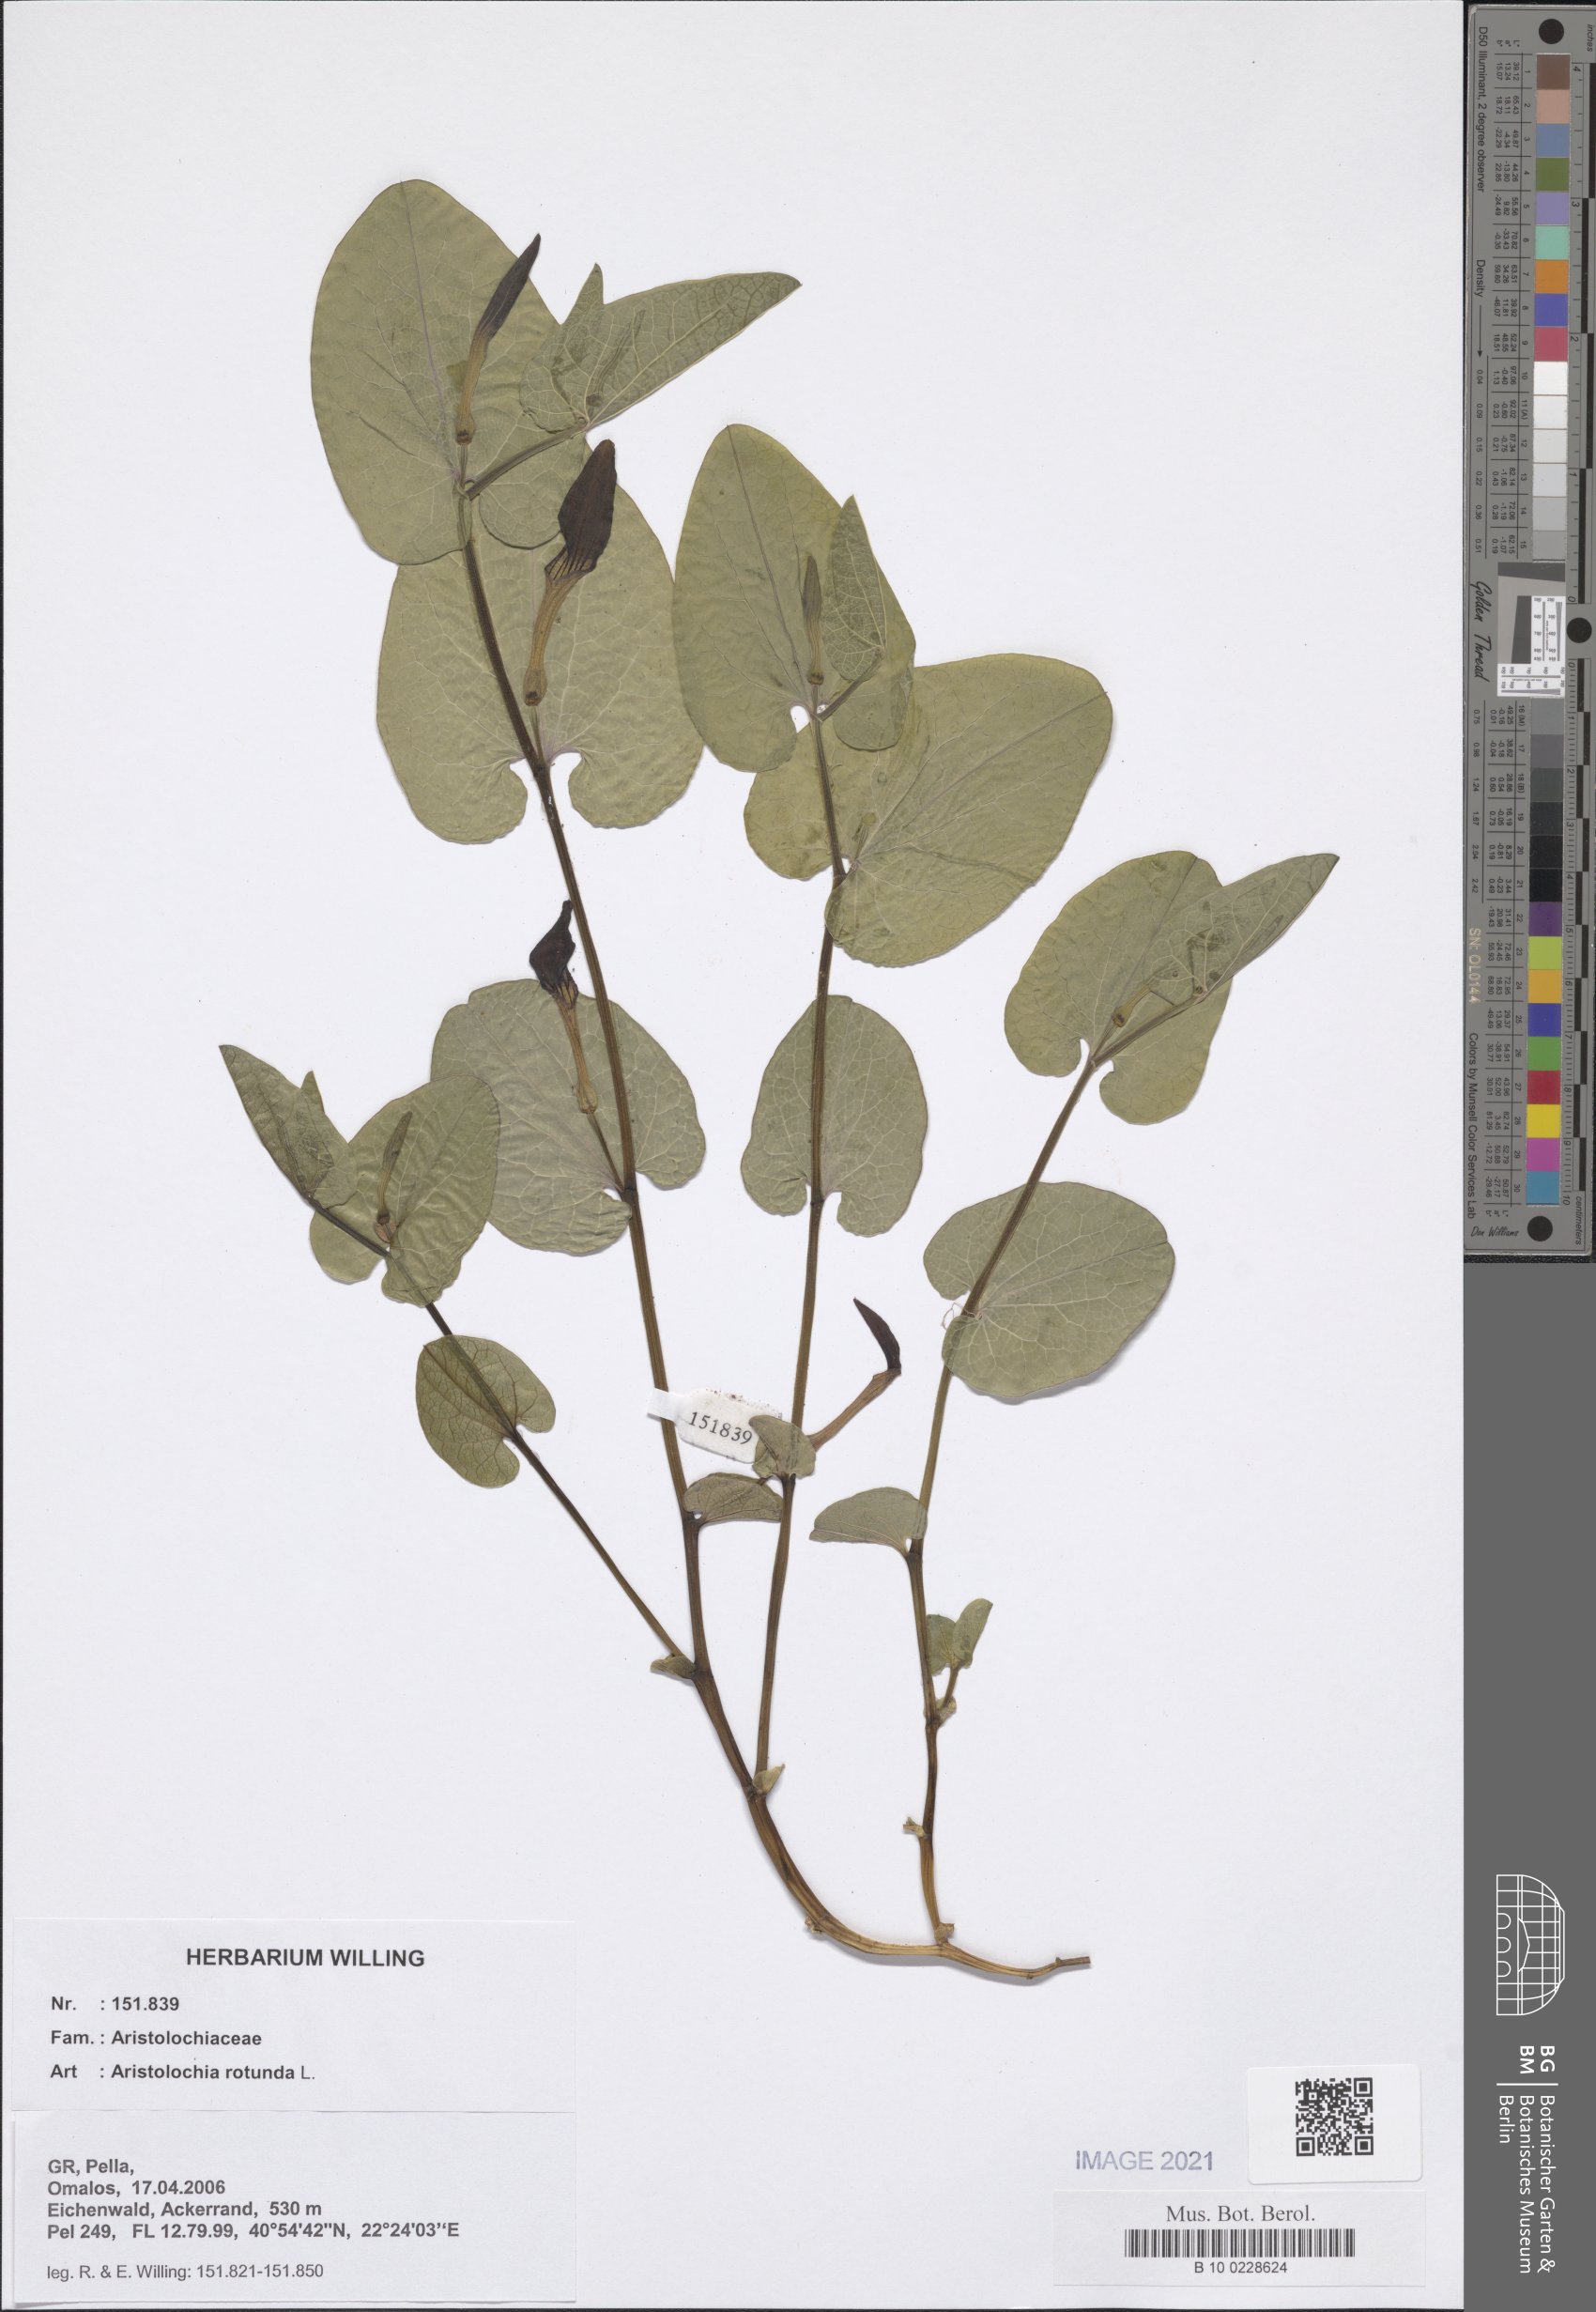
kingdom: Plantae
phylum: Tracheophyta
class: Magnoliopsida
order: Piperales
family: Aristolochiaceae
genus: Aristolochia
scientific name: Aristolochia rotunda
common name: Smearwort
